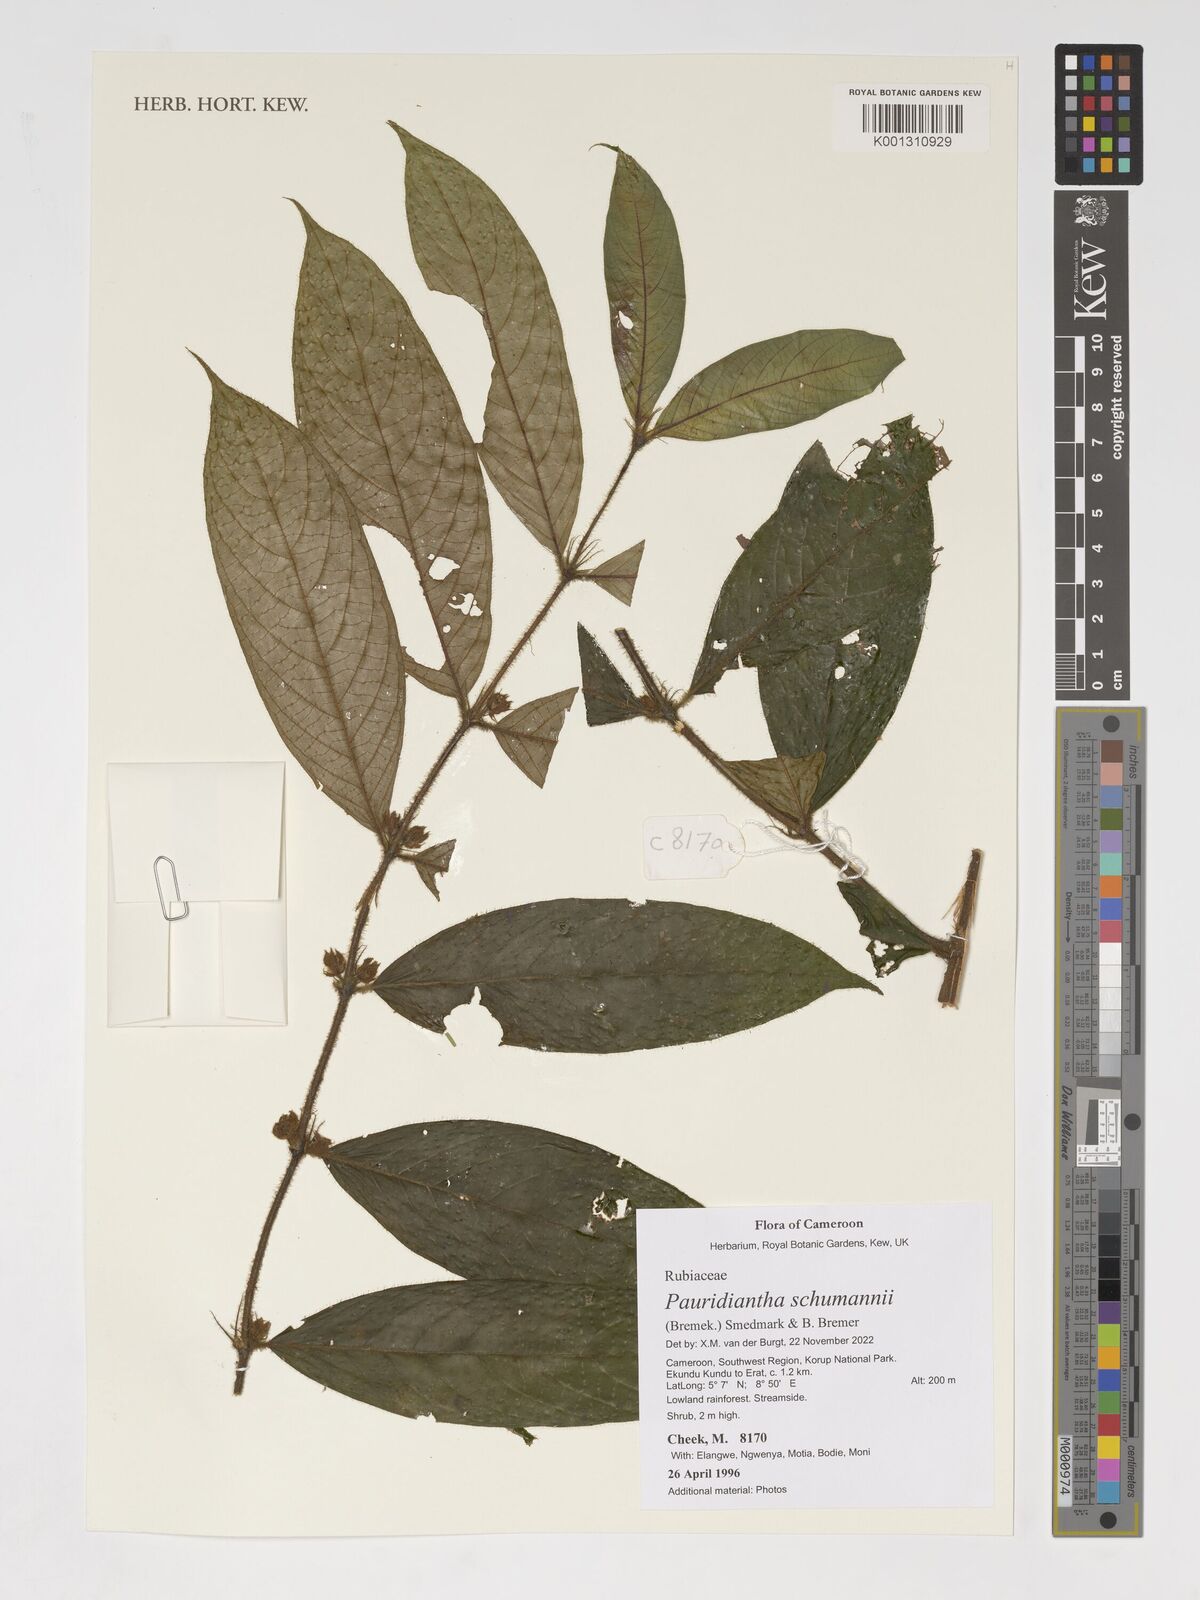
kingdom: Plantae
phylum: Tracheophyta
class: Magnoliopsida
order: Gentianales
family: Rubiaceae
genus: Pauridiantha
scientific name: Pauridiantha schumannii
